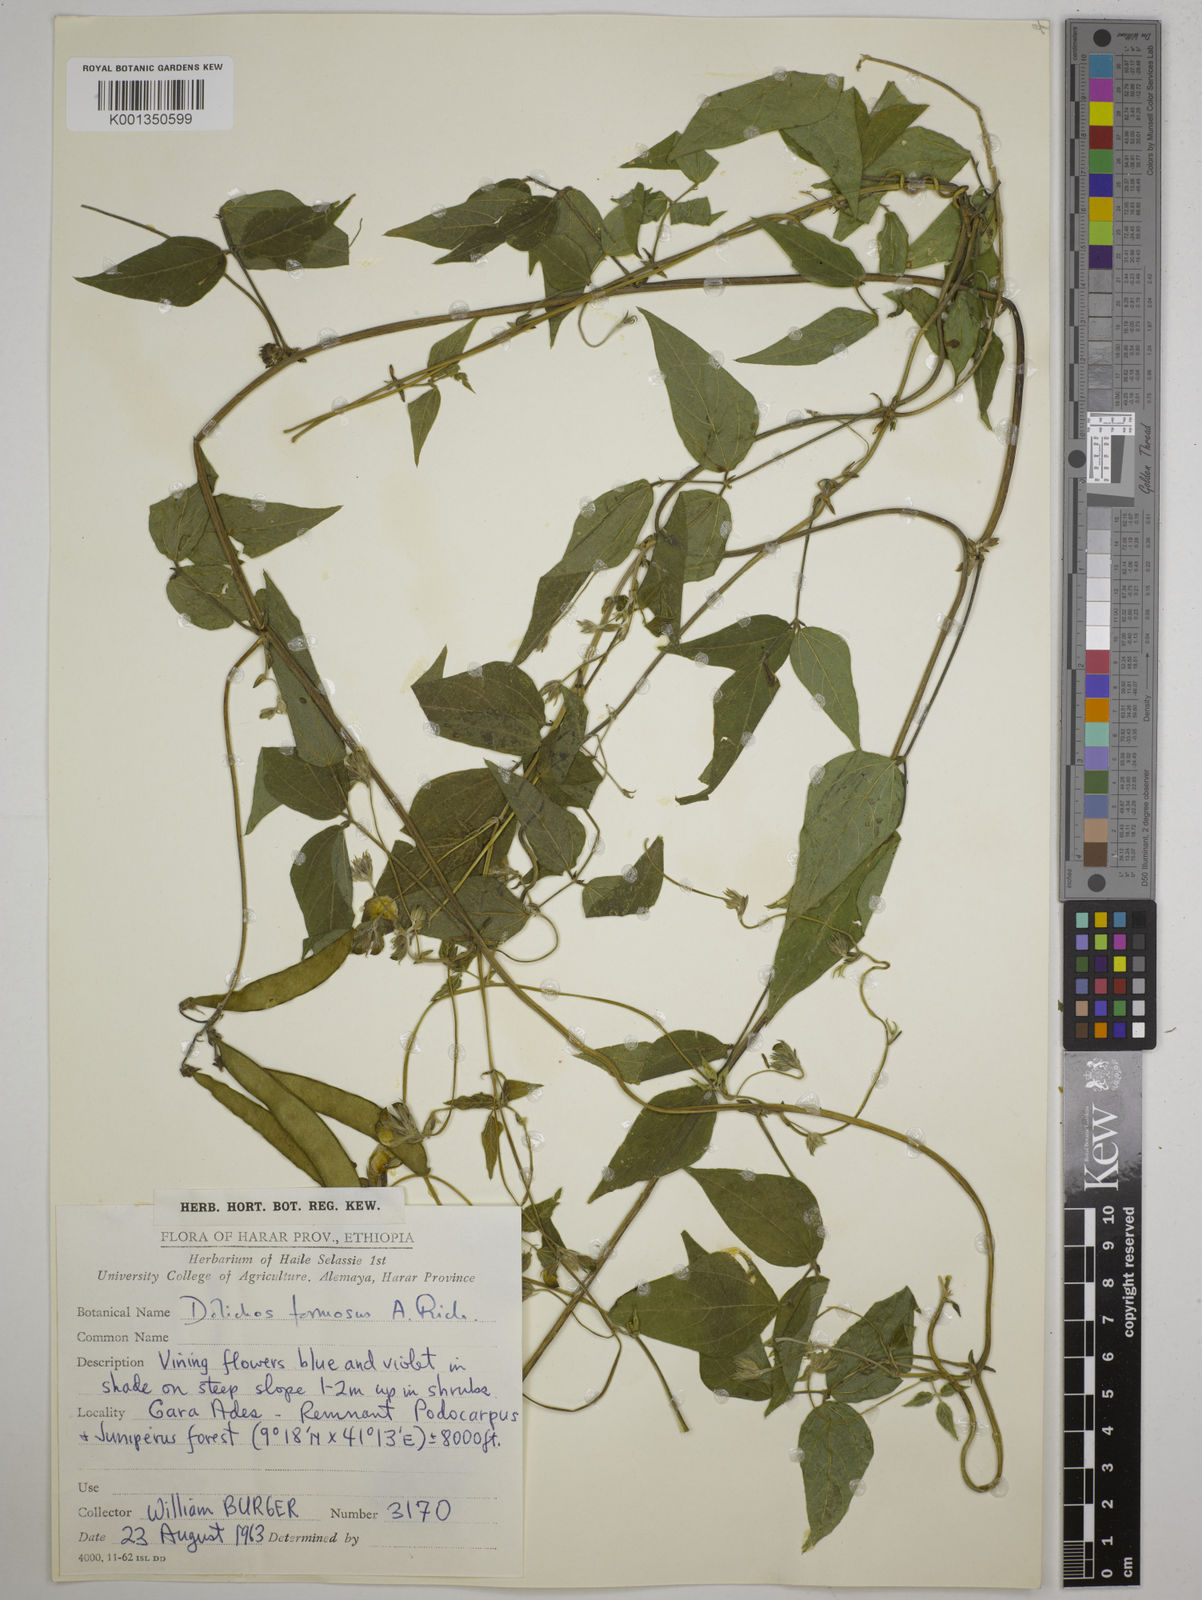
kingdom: Plantae
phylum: Tracheophyta
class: Magnoliopsida
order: Fabales
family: Fabaceae
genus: Dolichos
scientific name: Dolichos
